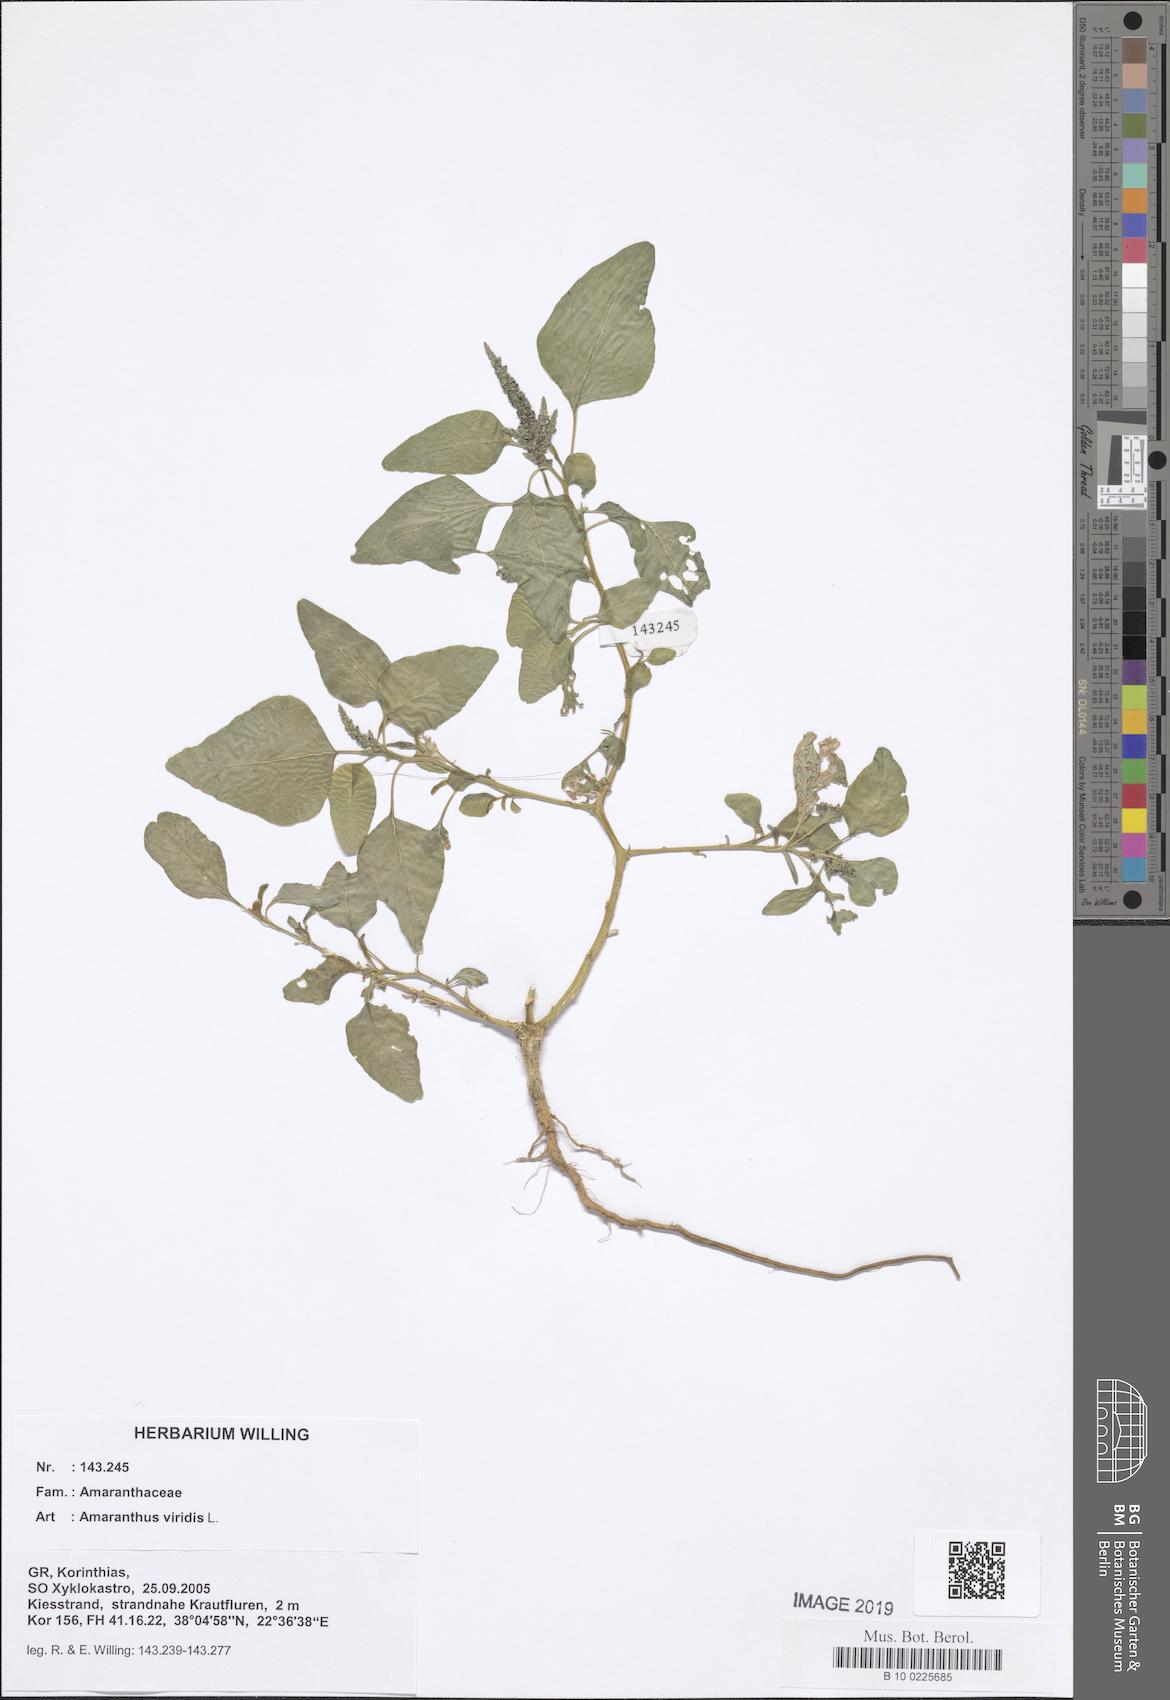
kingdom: Plantae
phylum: Tracheophyta
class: Magnoliopsida
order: Caryophyllales
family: Amaranthaceae
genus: Amaranthus
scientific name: Amaranthus viridis
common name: Slender amaranth
